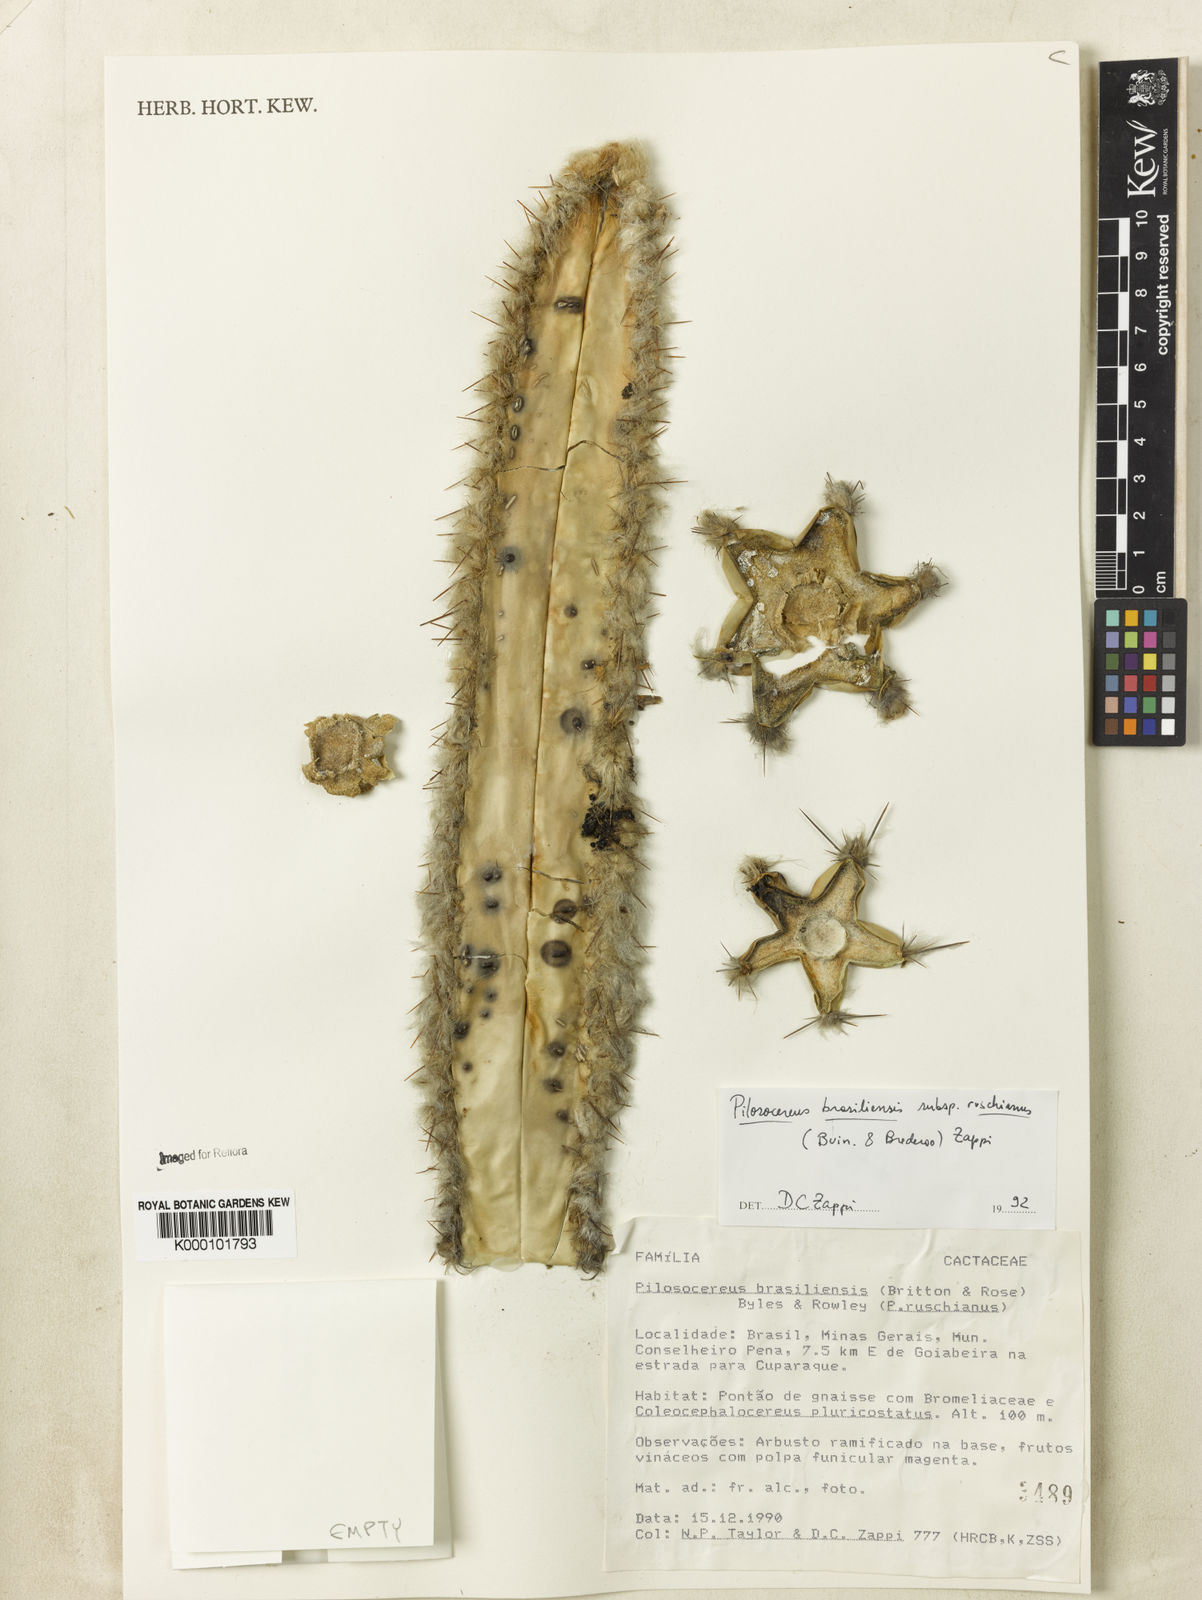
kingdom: Plantae
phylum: Tracheophyta
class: Magnoliopsida
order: Caryophyllales
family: Cactaceae
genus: Pilosocereus
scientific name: Pilosocereus brasiliensis
